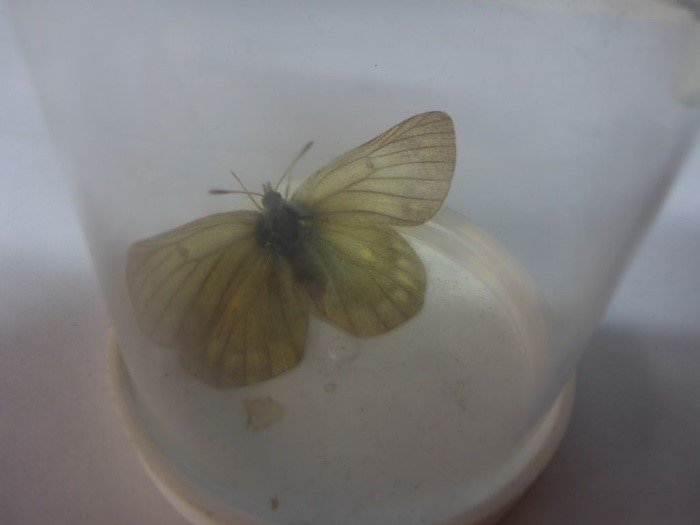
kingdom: Animalia
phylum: Arthropoda
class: Insecta
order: Lepidoptera
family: Pieridae
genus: Colias
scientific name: Colias nastes
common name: Labrador Sulphur
